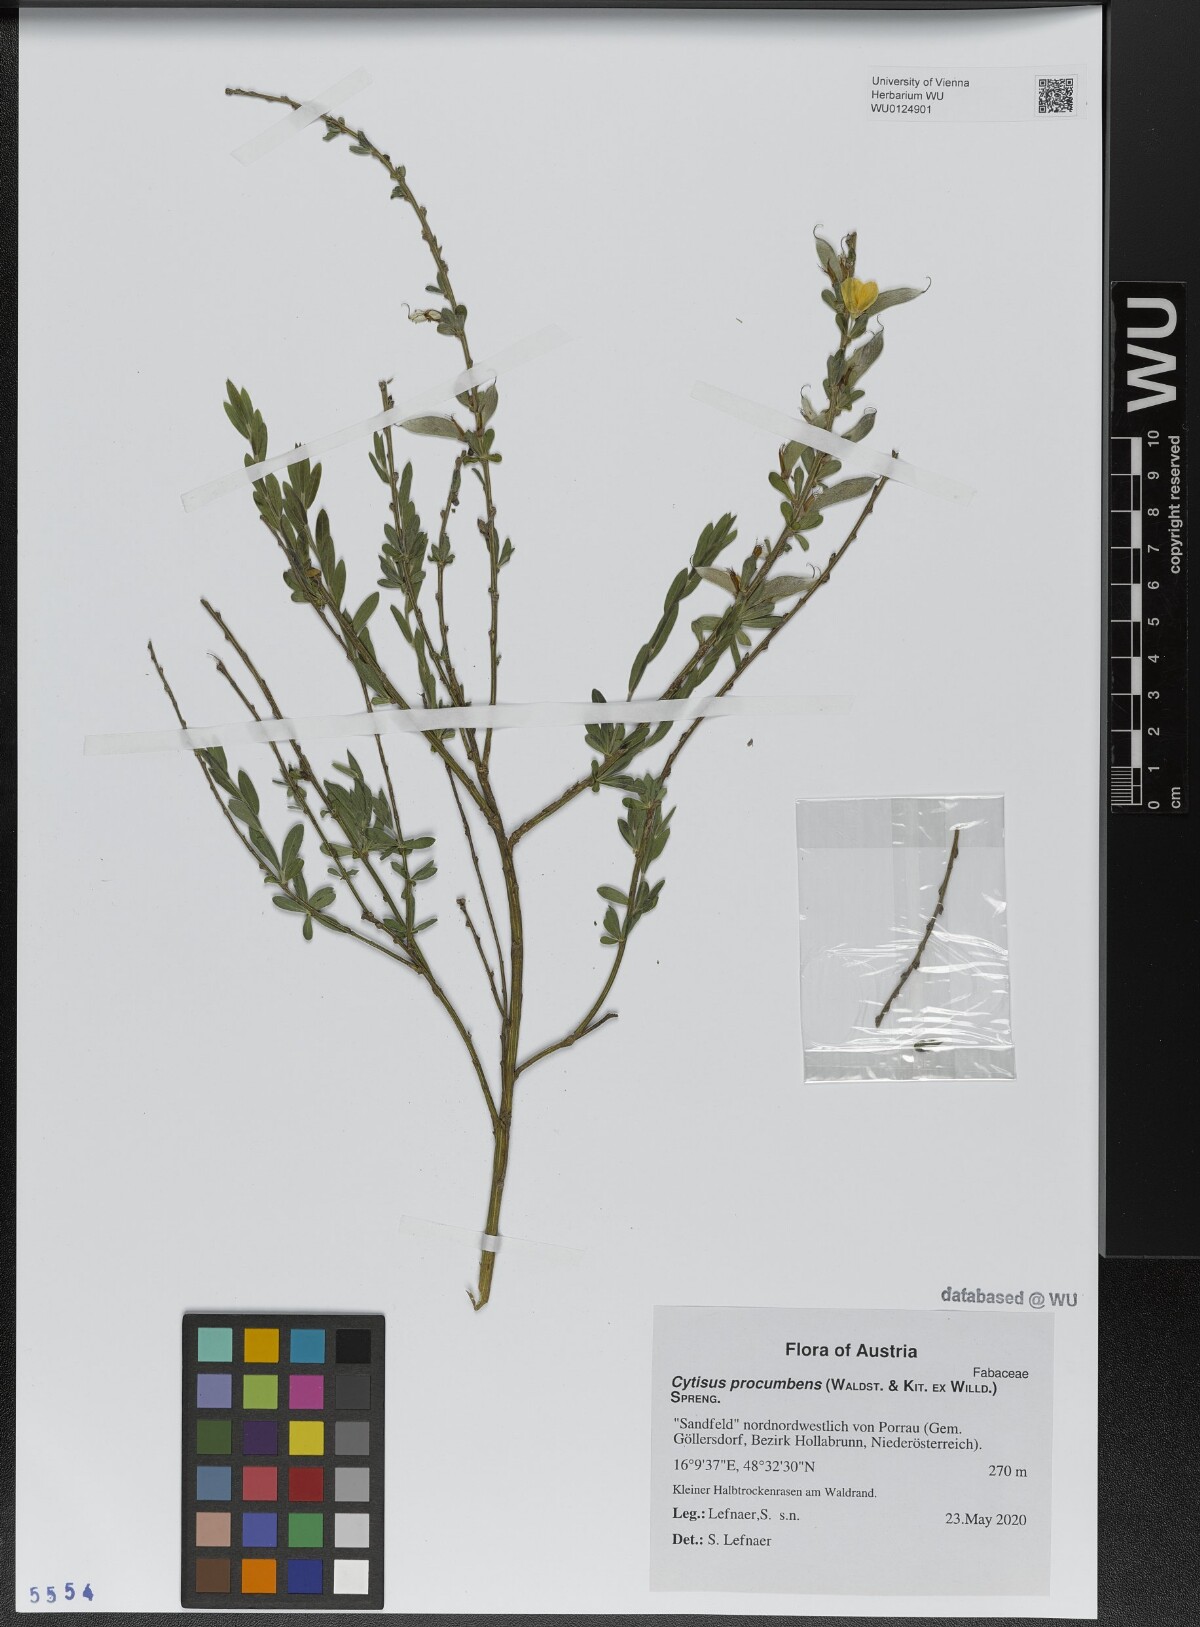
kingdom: Plantae
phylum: Tracheophyta
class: Magnoliopsida
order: Fabales
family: Fabaceae
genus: Cytisus
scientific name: Cytisus procumbens
